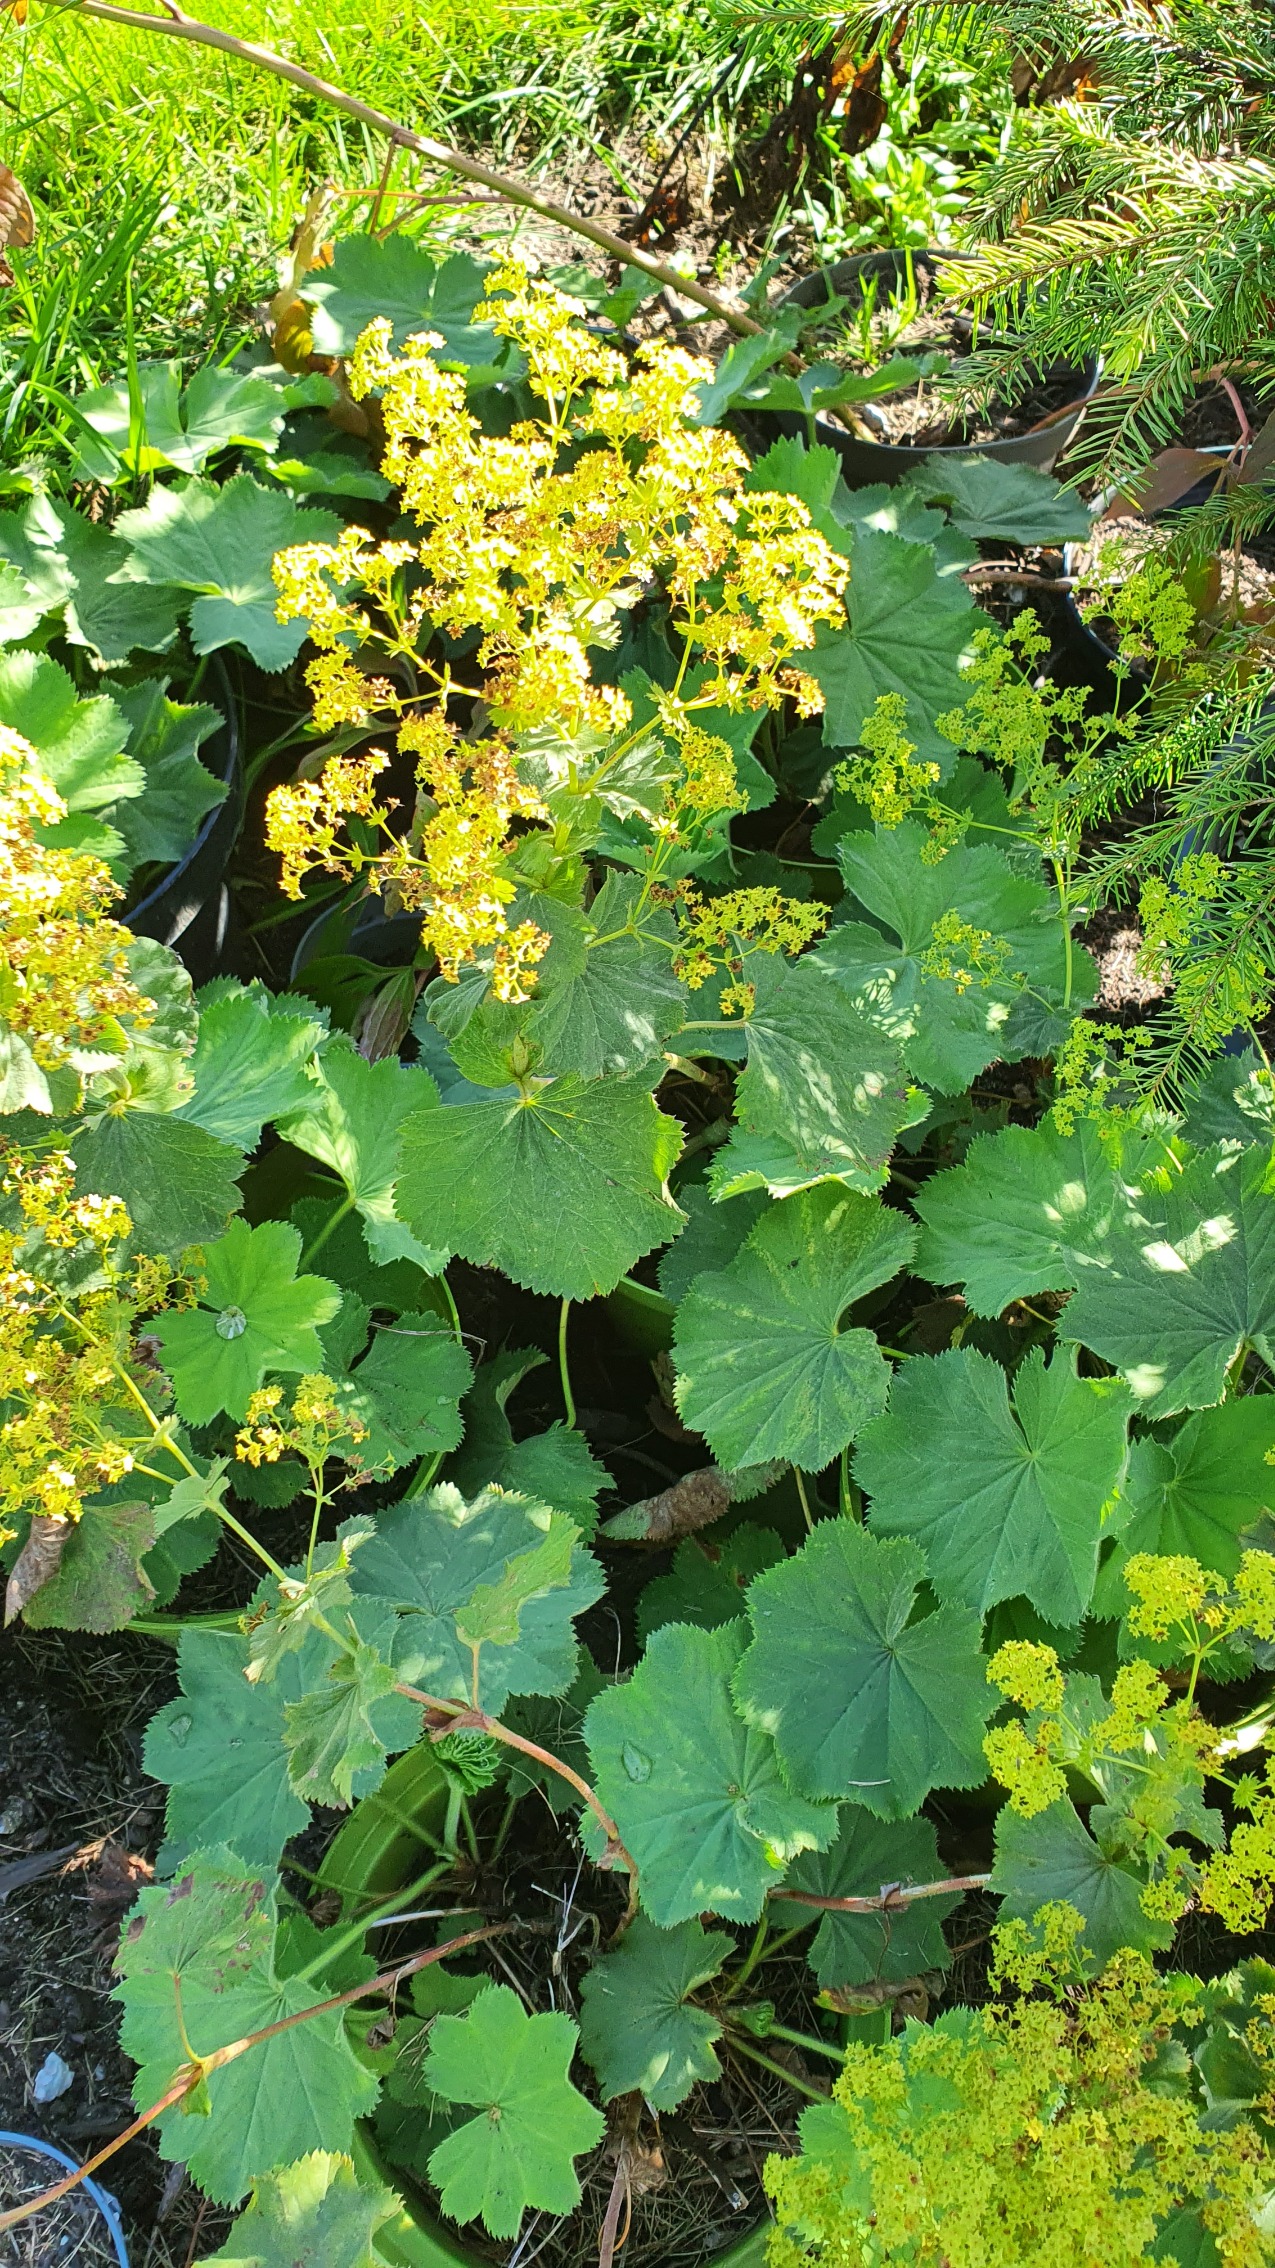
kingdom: Plantae
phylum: Tracheophyta
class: Magnoliopsida
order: Rosales
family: Rosaceae
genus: Alchemilla
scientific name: Alchemilla mollis
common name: Lådden løvefod
